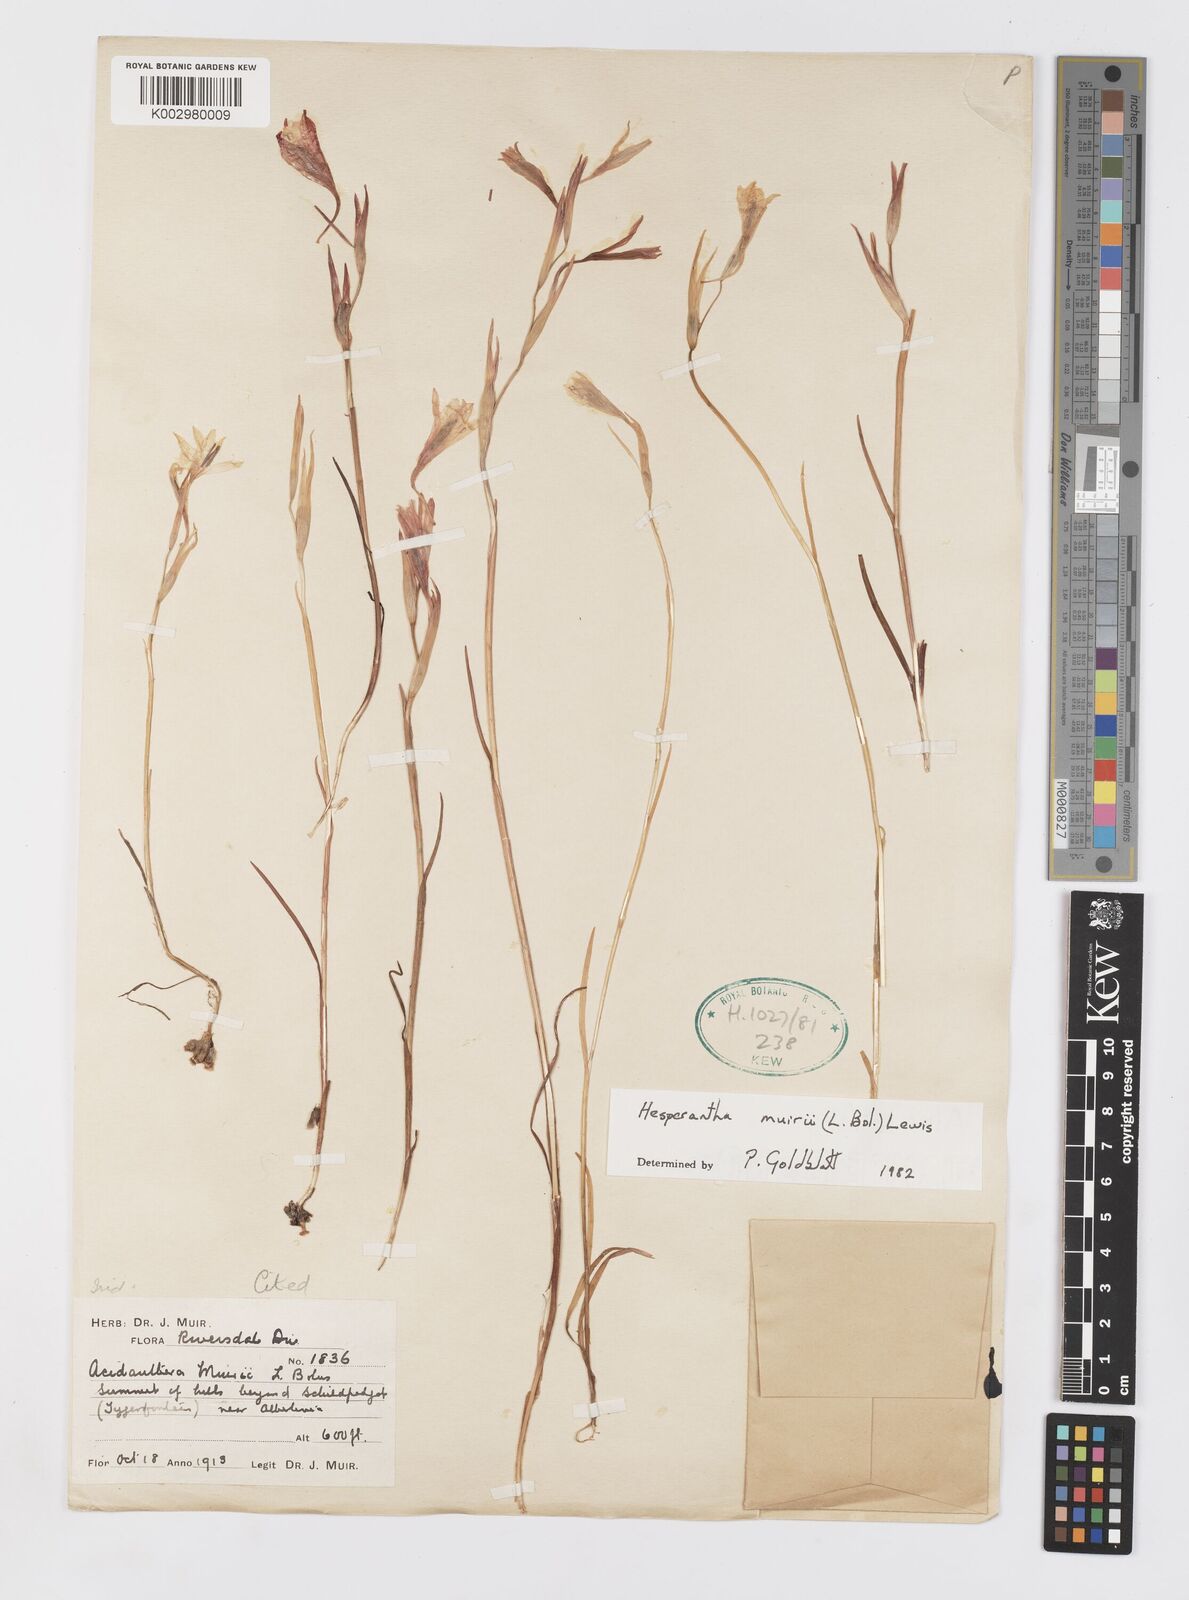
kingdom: Plantae
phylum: Tracheophyta
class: Liliopsida
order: Asparagales
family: Iridaceae
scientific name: Iridaceae
